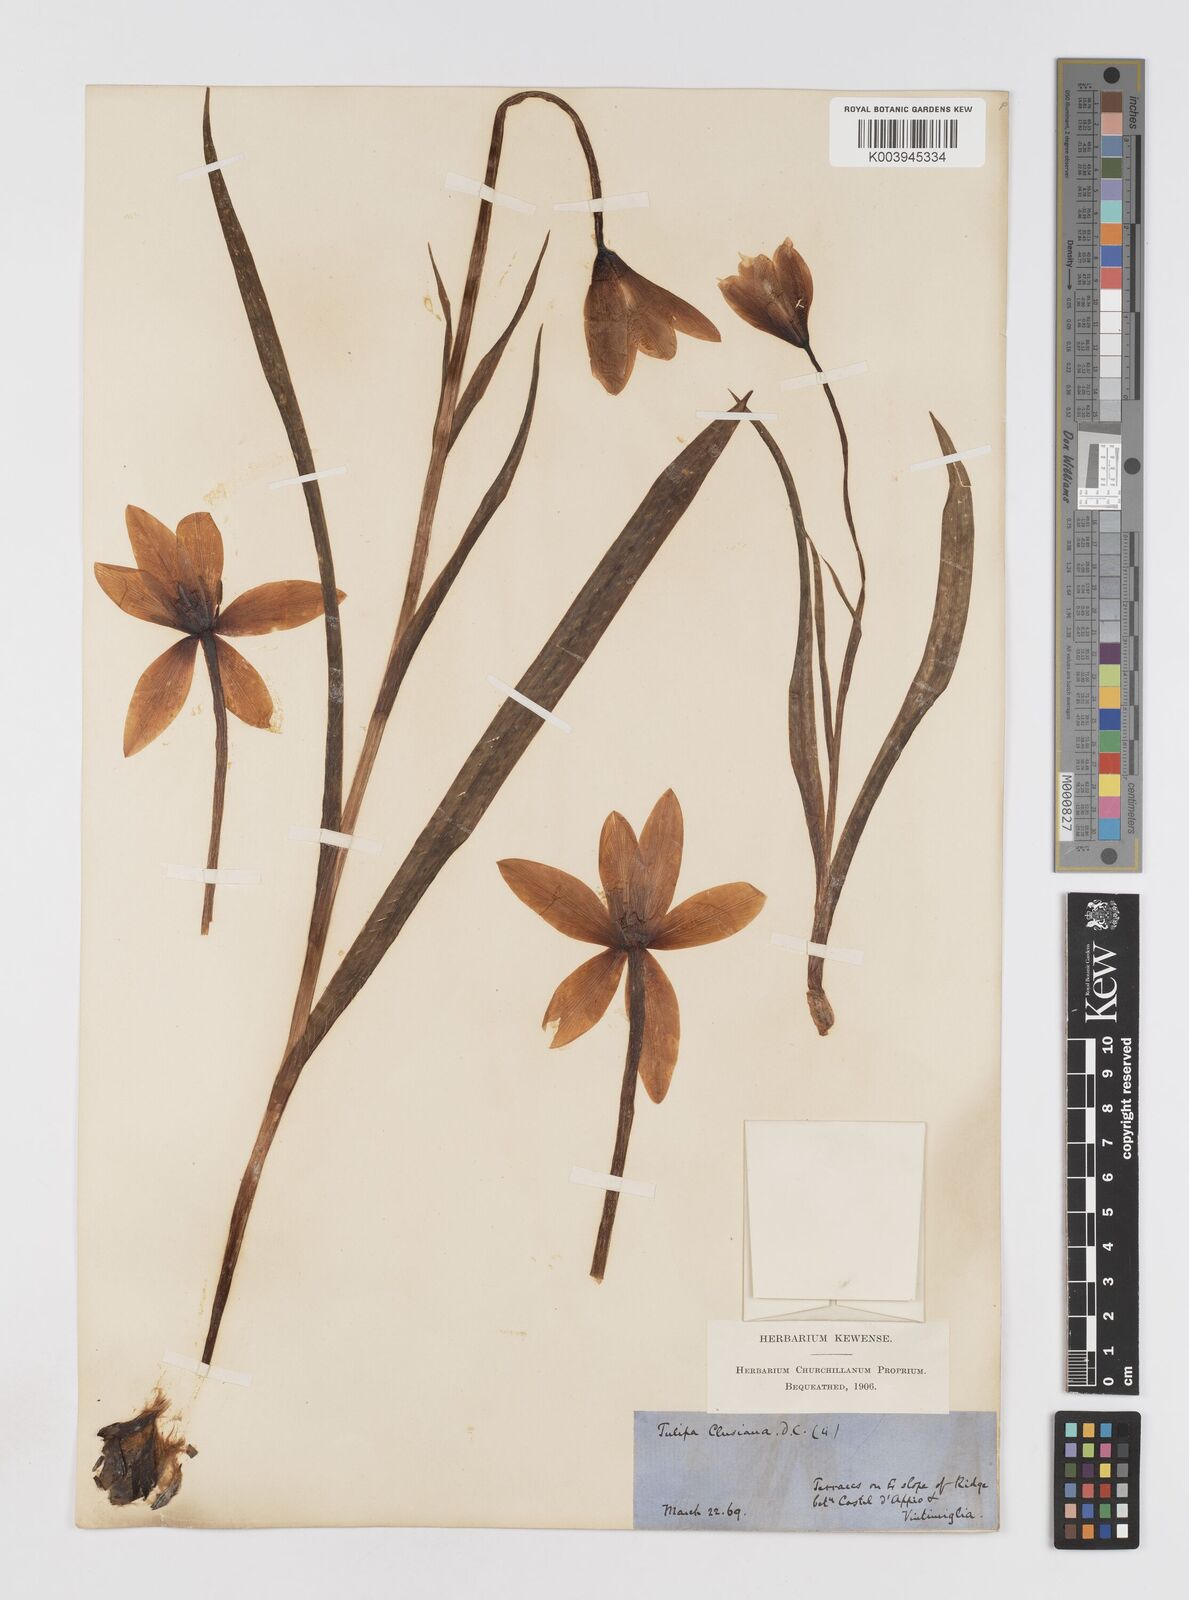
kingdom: Plantae
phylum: Tracheophyta
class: Liliopsida
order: Liliales
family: Liliaceae
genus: Tulipa
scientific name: Tulipa clusiana
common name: Lady tulip
